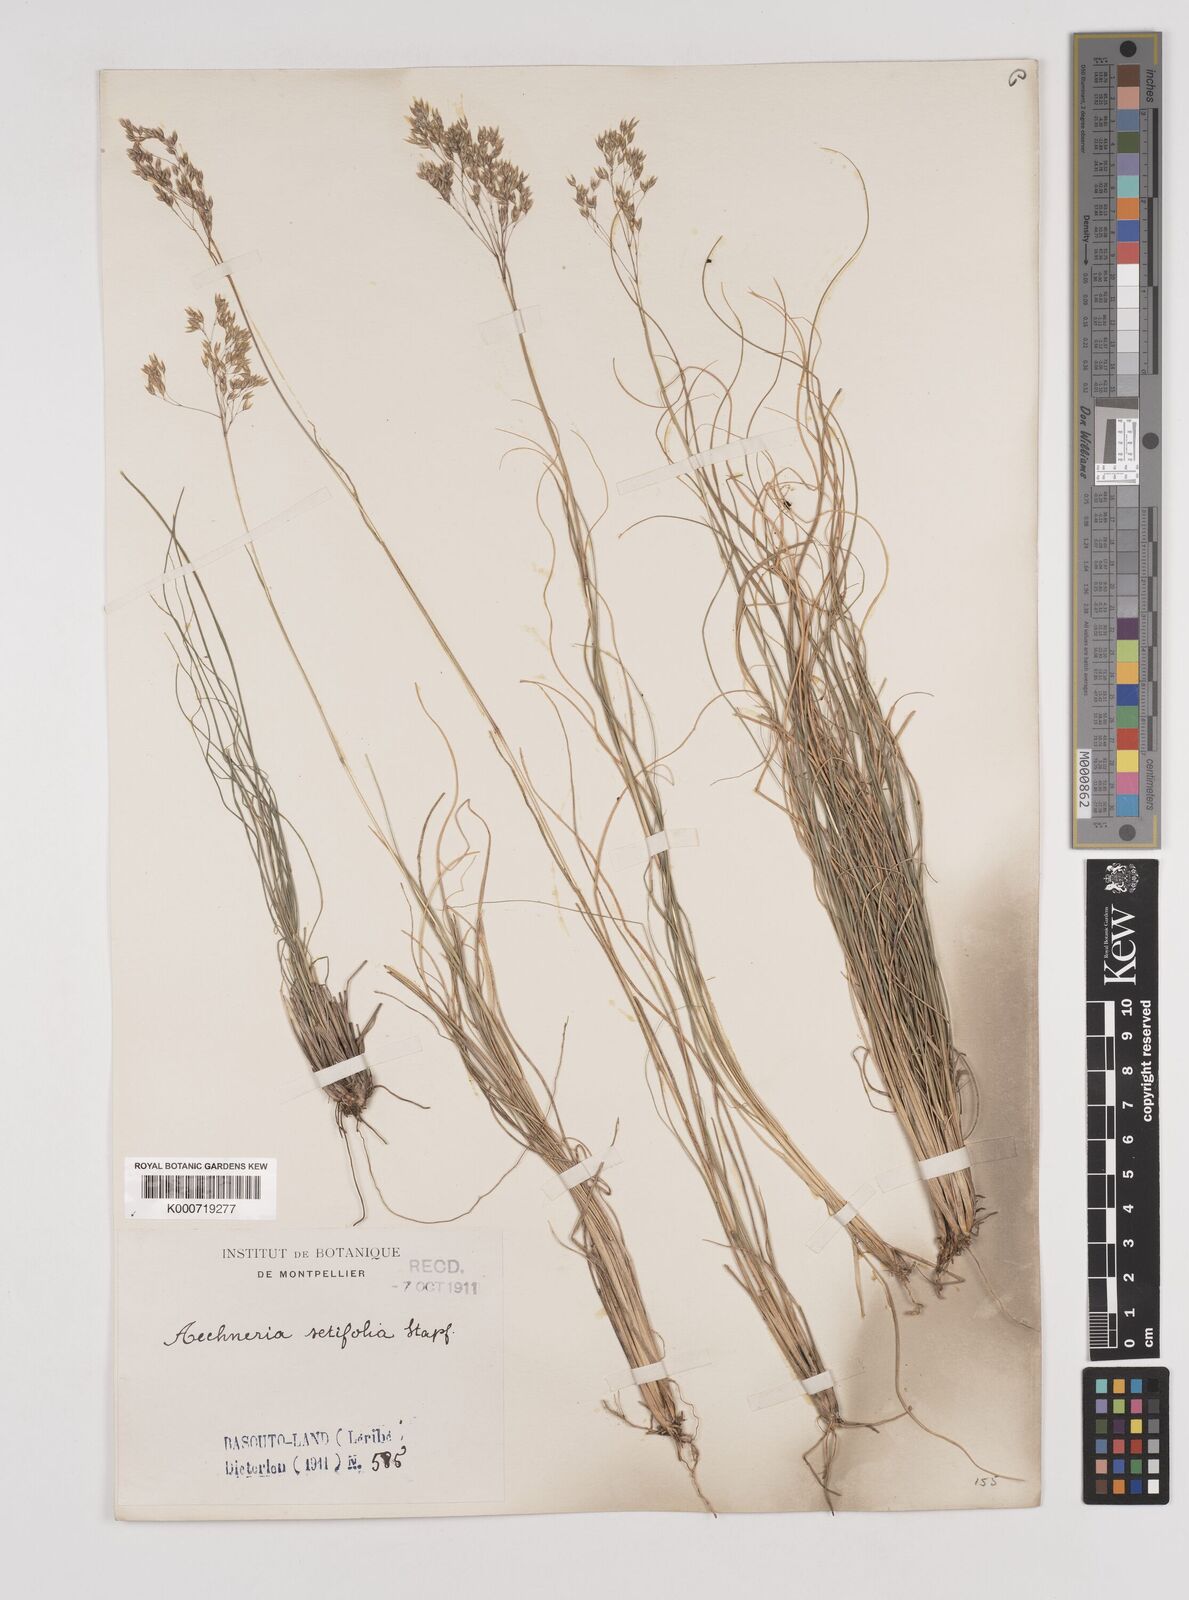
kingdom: Plantae
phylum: Tracheophyta
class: Liliopsida
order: Poales
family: Poaceae
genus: Pentameris
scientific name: Pentameris setifolia
